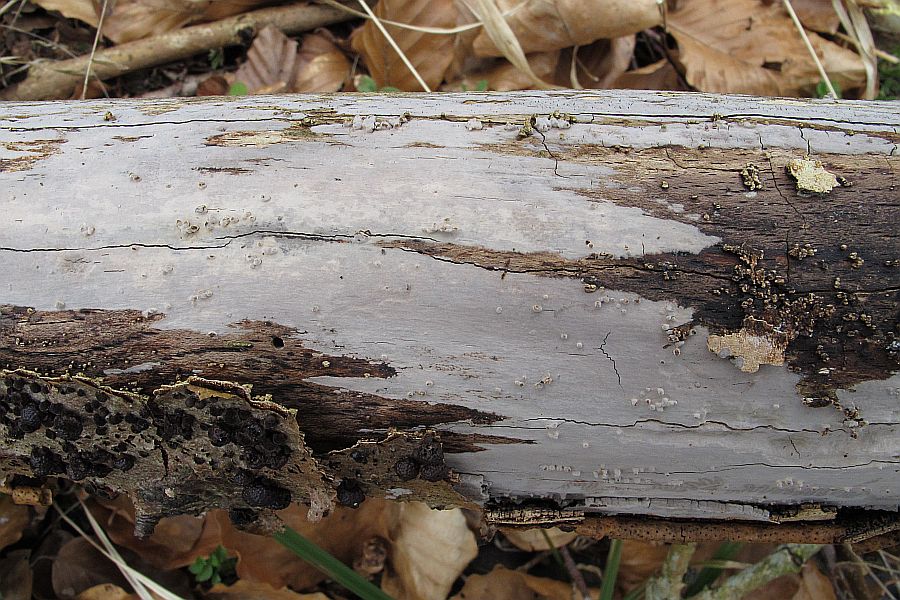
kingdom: Fungi
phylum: Basidiomycota
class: Agaricomycetes
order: Russulales
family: Peniophoraceae
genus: Peniophora
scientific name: Peniophora lycii
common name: grynet voksskind
